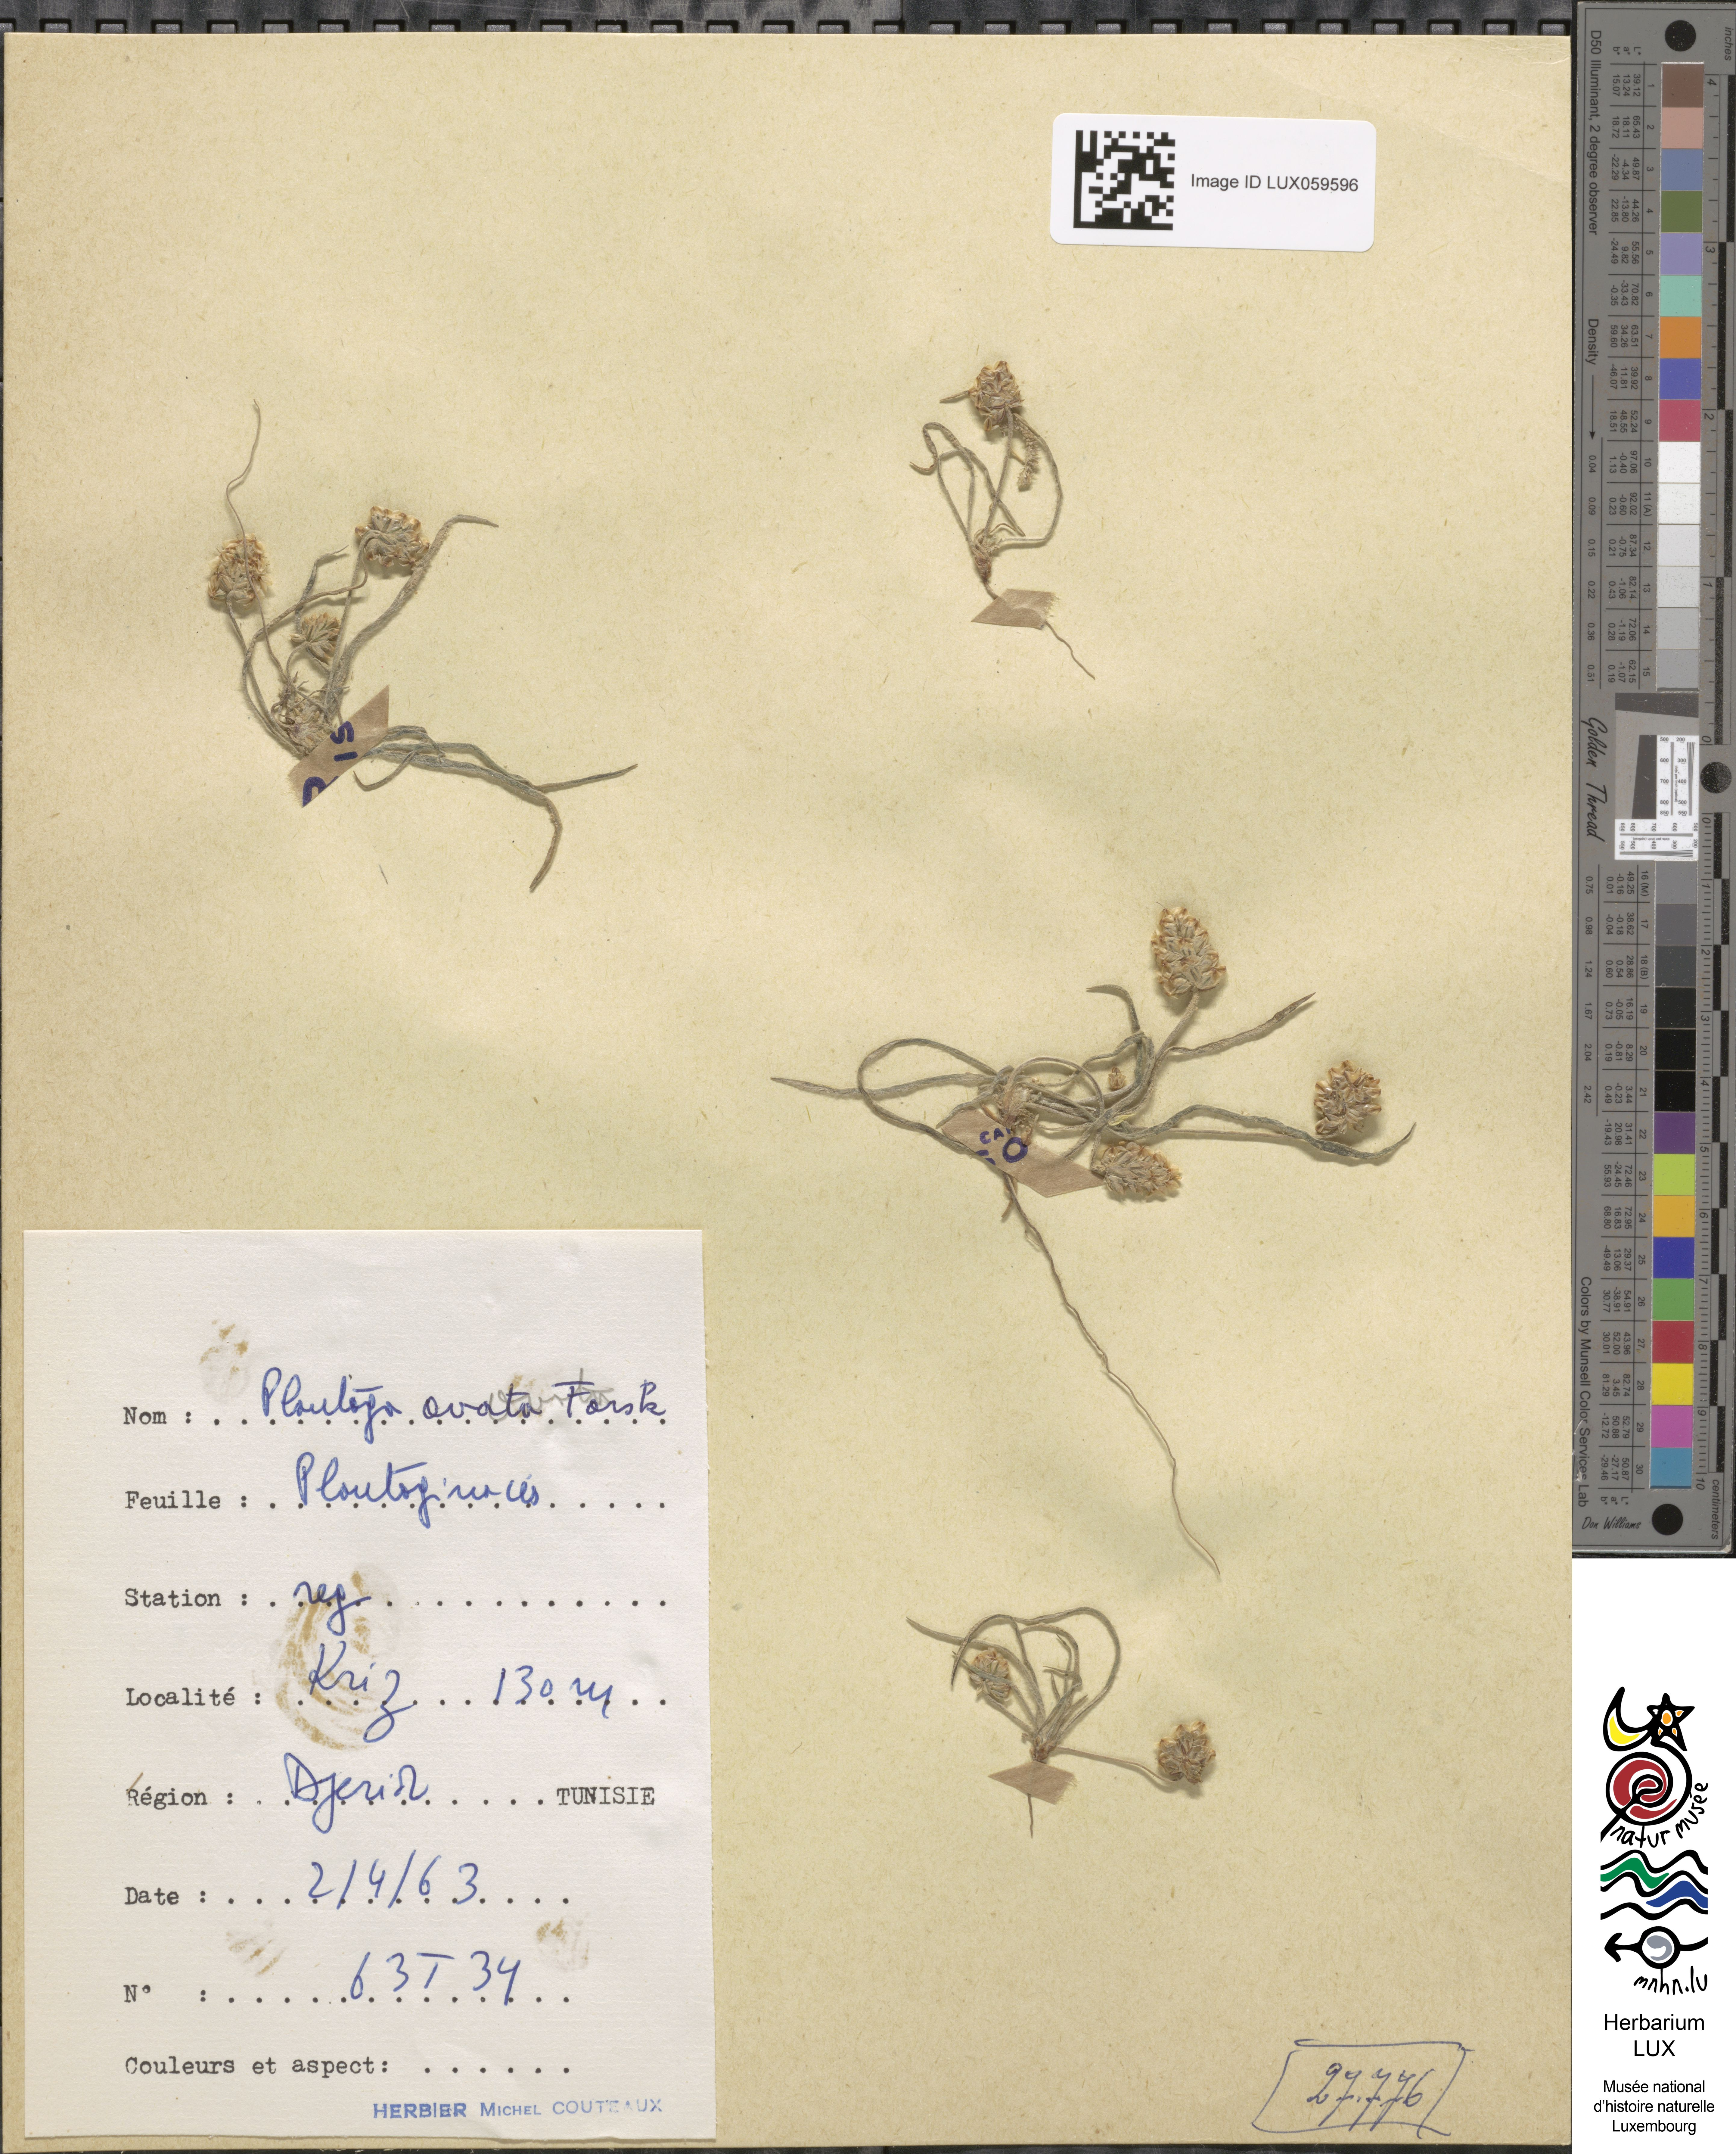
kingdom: Plantae
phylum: Tracheophyta
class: Magnoliopsida
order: Lamiales
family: Plantaginaceae
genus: Plantago
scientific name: Plantago ovata
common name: Blond plantain
